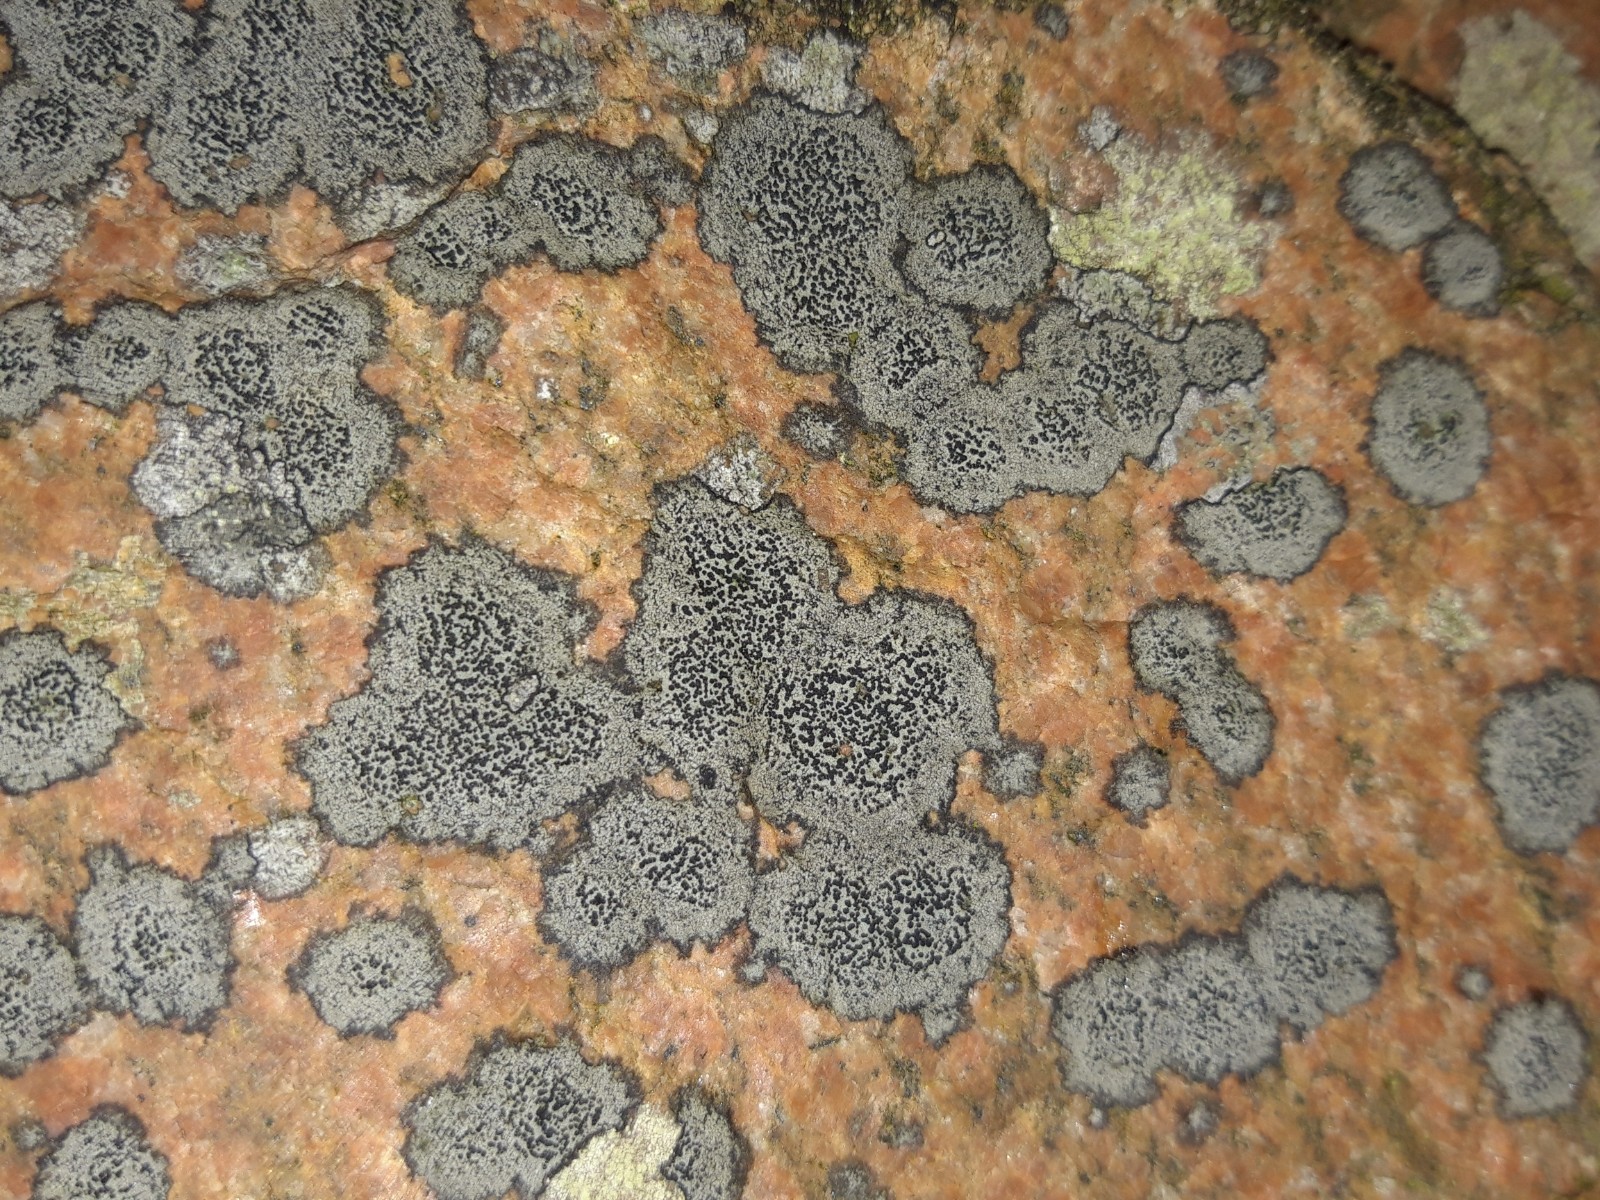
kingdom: Plantae
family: Lecanoromycetidae
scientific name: Lecanoromycetidae
